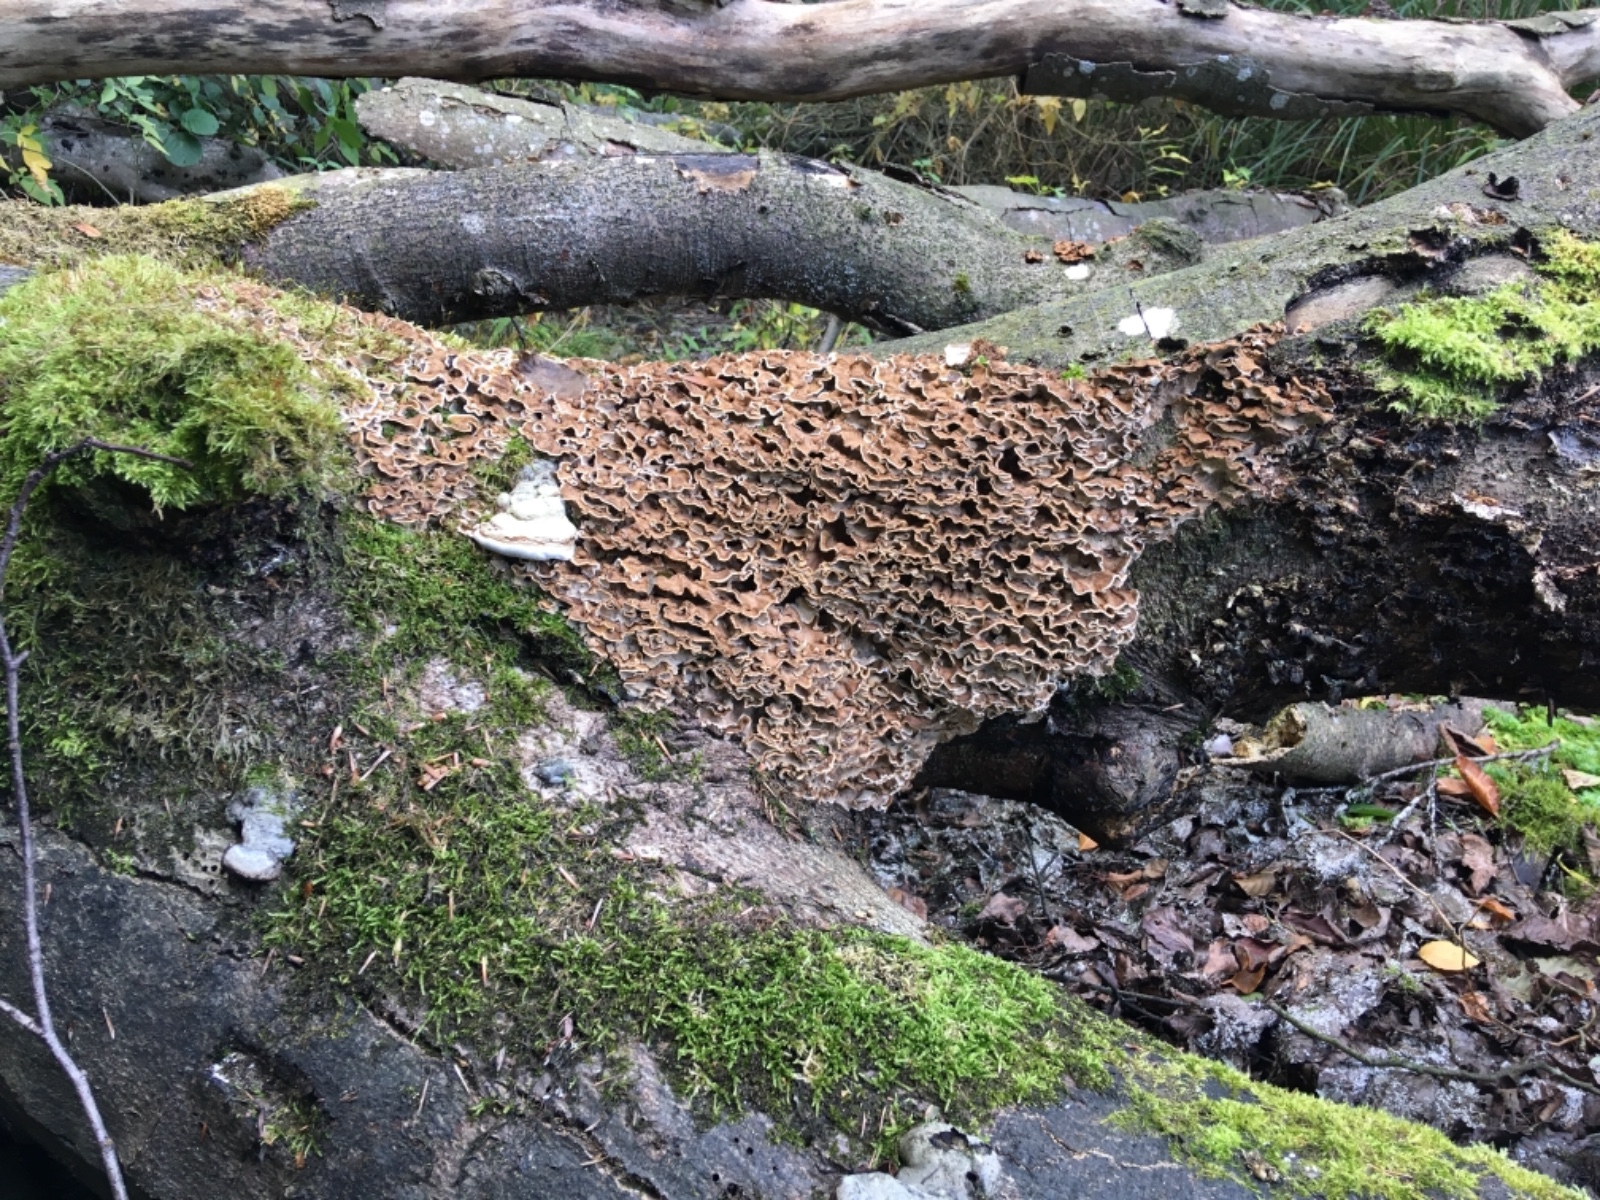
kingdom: Fungi
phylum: Basidiomycota
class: Agaricomycetes
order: Russulales
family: Hericiaceae
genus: Laxitextum
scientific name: Laxitextum bicolor
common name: tvefarvet filtskind
